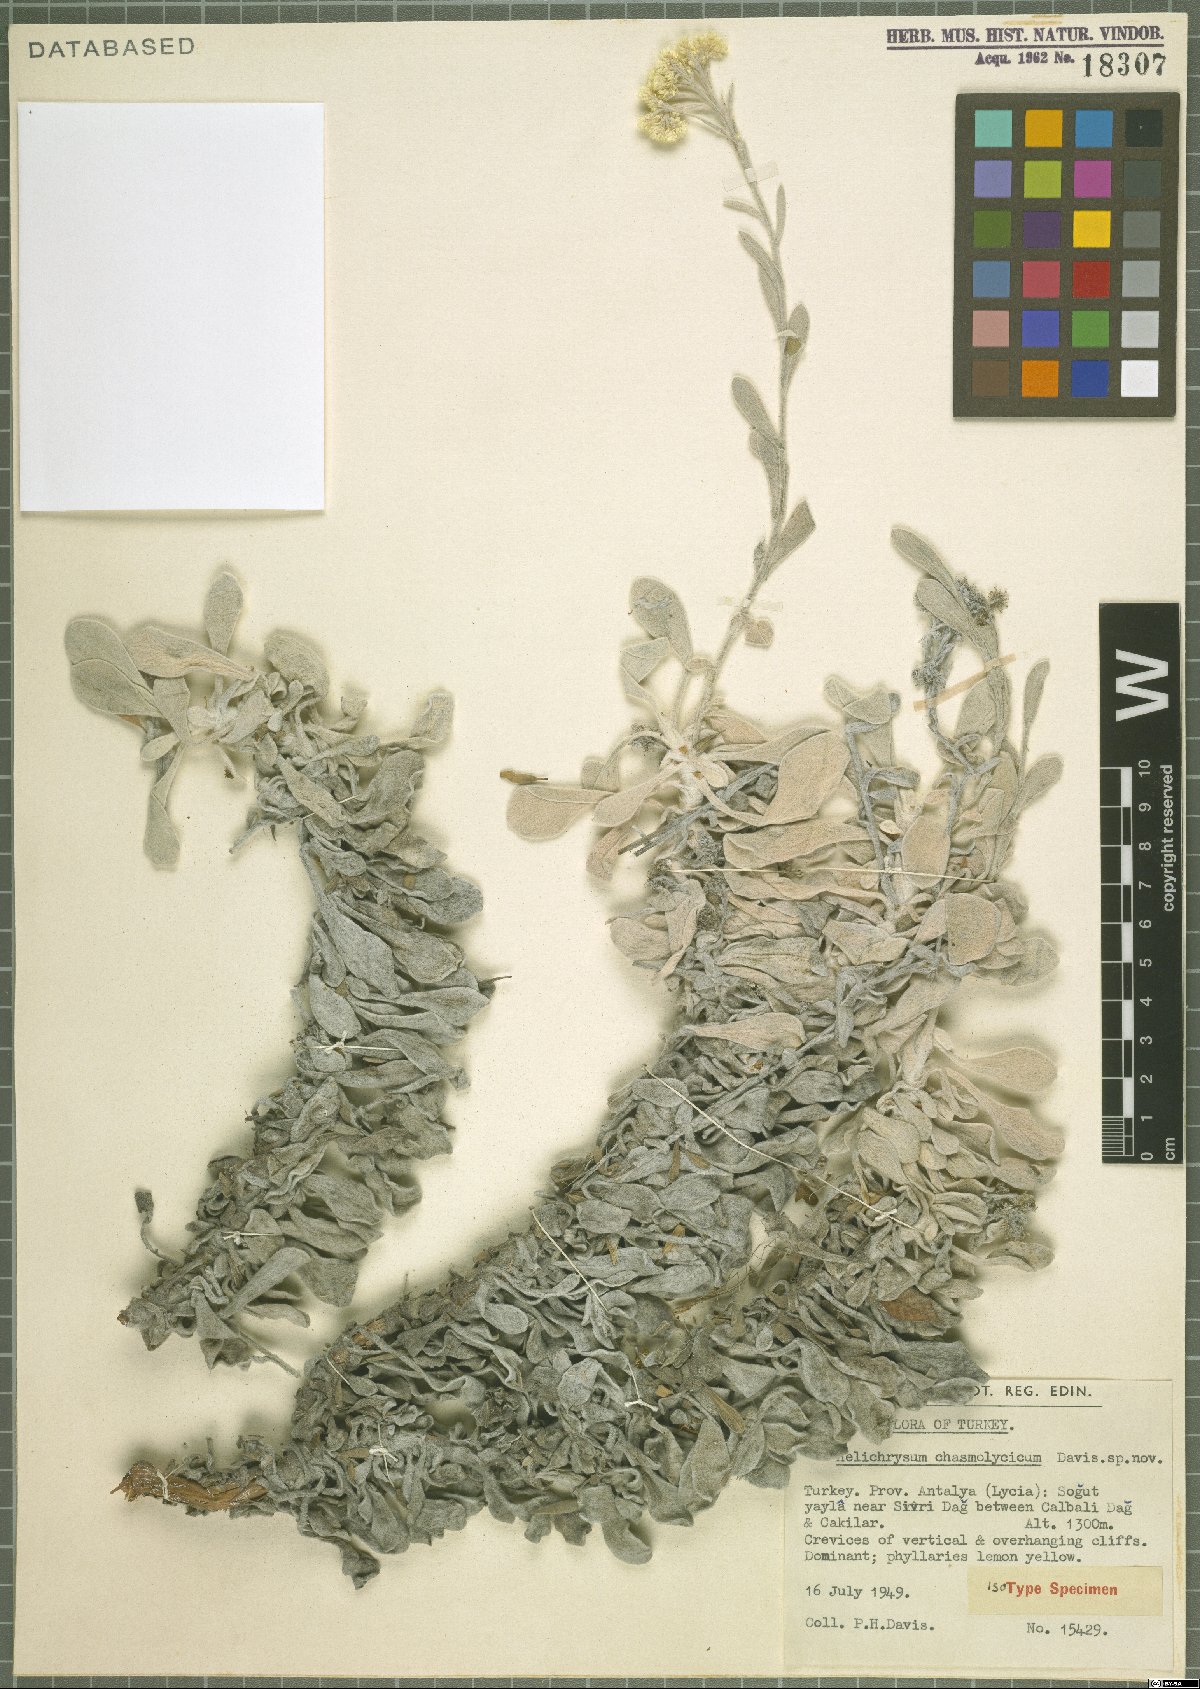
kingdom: Plantae
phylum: Tracheophyta
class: Magnoliopsida
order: Asterales
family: Asteraceae
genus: Helichrysum
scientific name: Helichrysum chasmolycicum
